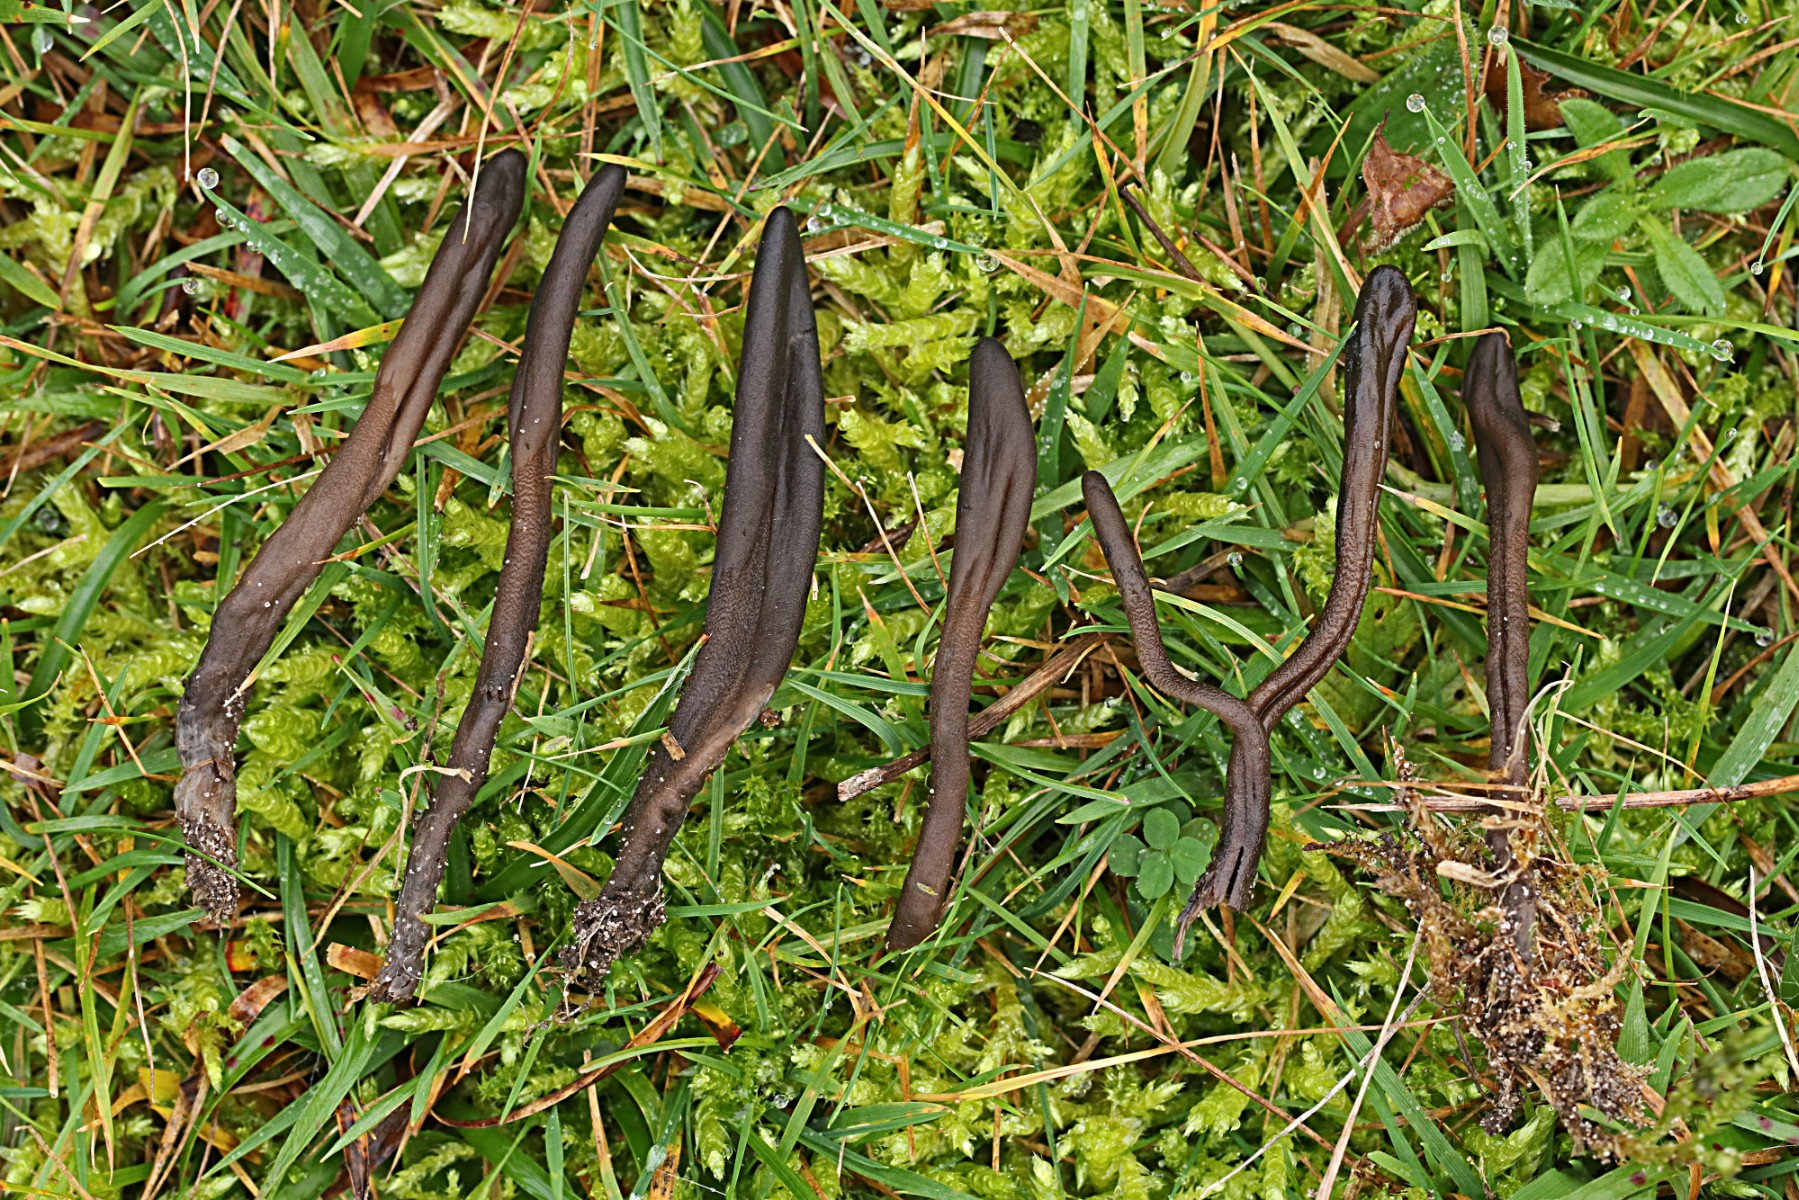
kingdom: Fungi
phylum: Ascomycota
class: Geoglossomycetes
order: Geoglossales
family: Geoglossaceae
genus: Geoglossum
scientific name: Geoglossum fallax
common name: småskællet jordtunge
